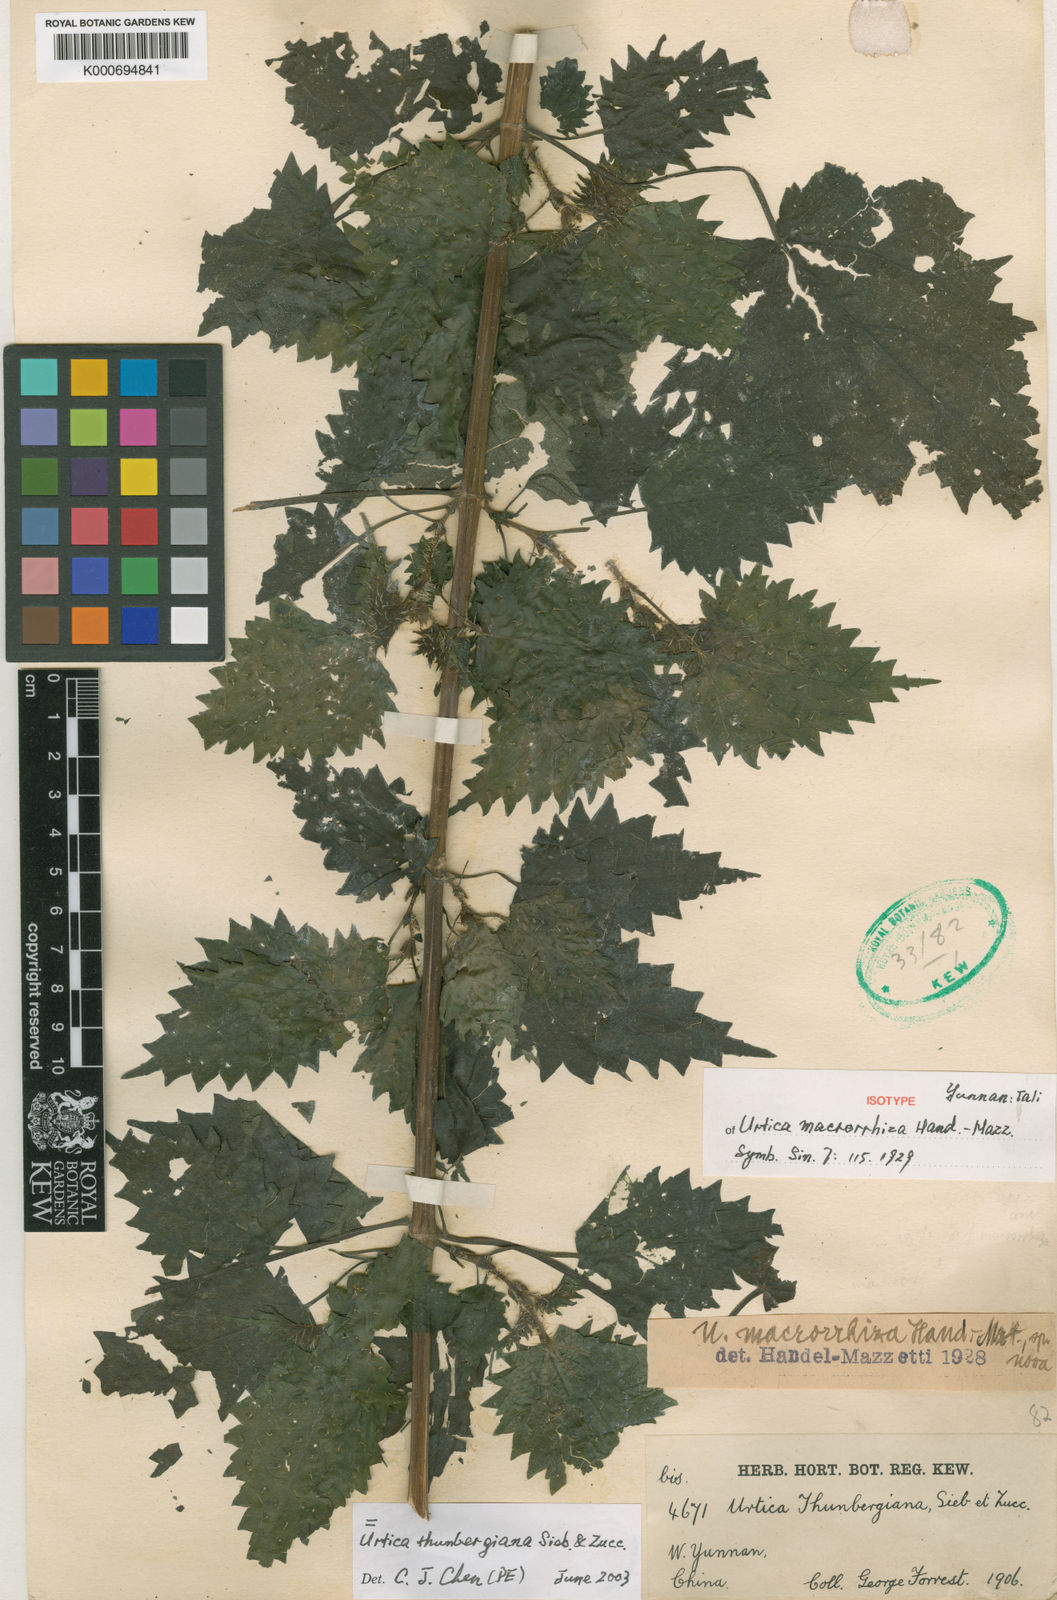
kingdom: Plantae
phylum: Tracheophyta
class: Magnoliopsida
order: Rosales
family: Urticaceae
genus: Urtica
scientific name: Urtica thunbergiana
